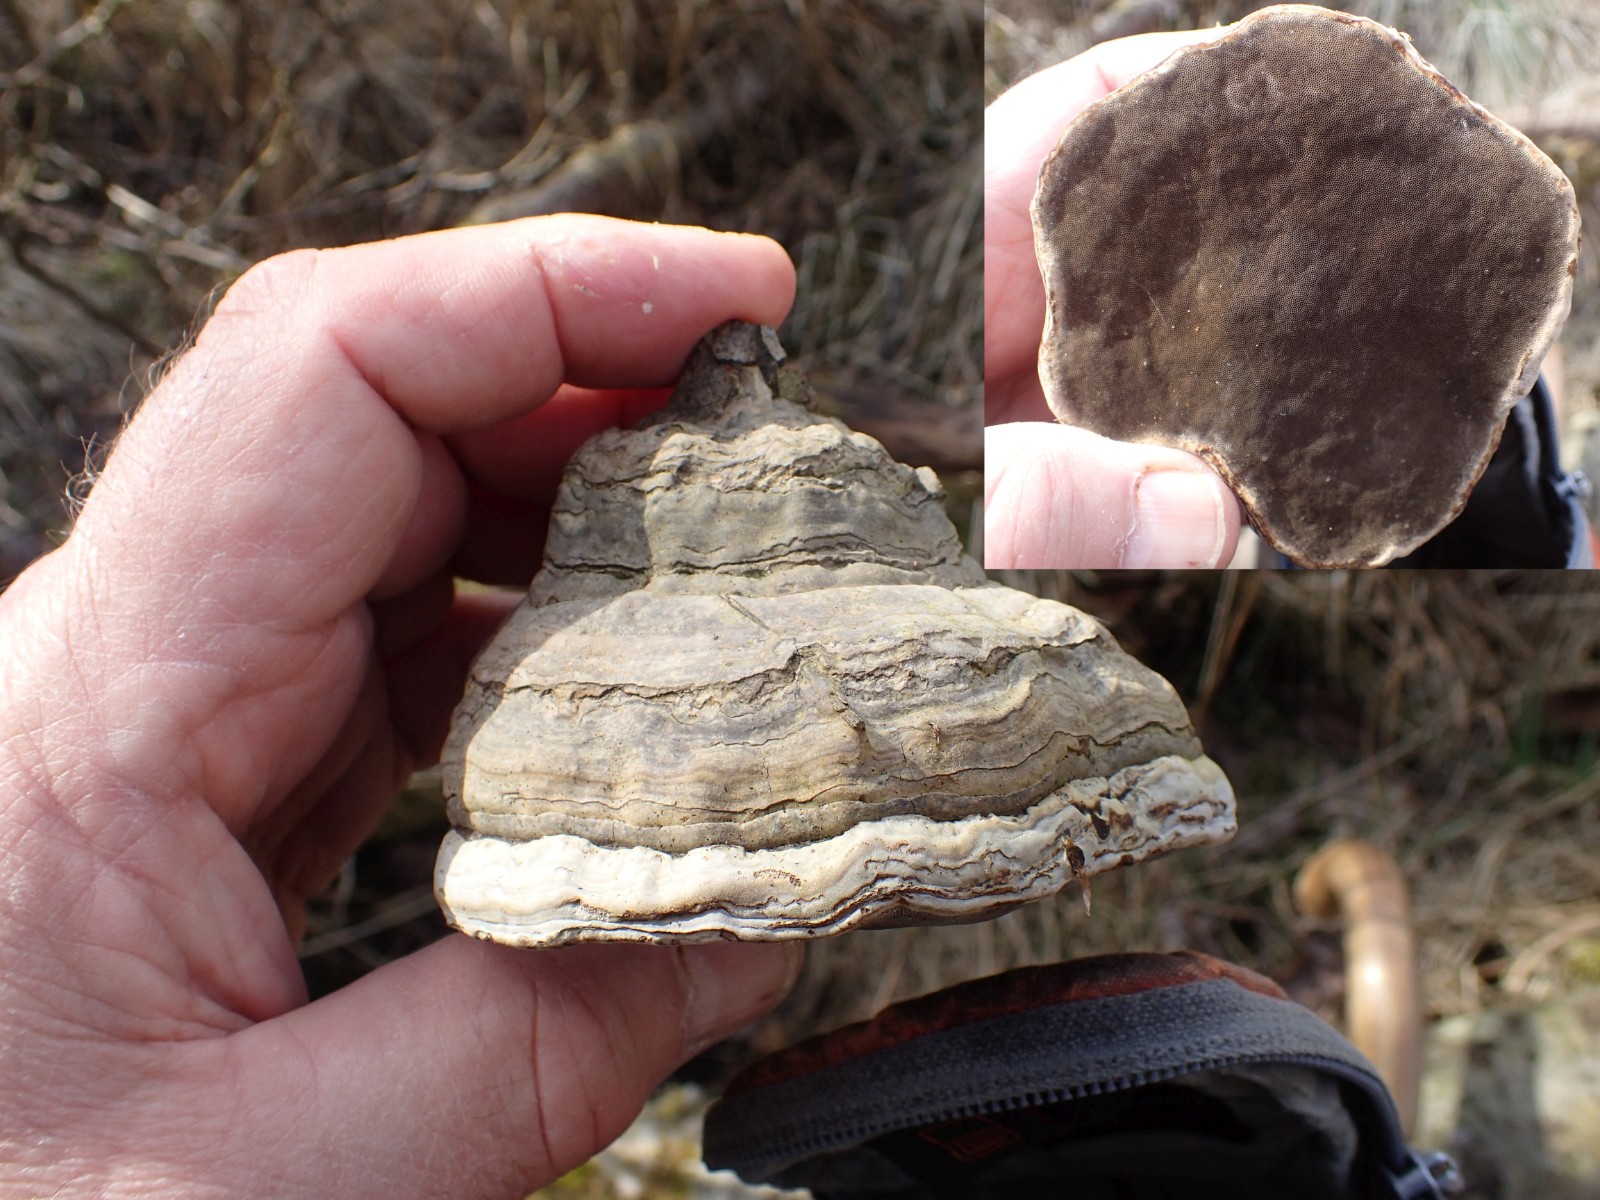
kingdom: Fungi
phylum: Basidiomycota
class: Agaricomycetes
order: Polyporales
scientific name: Polyporales
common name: poresvampordenen
